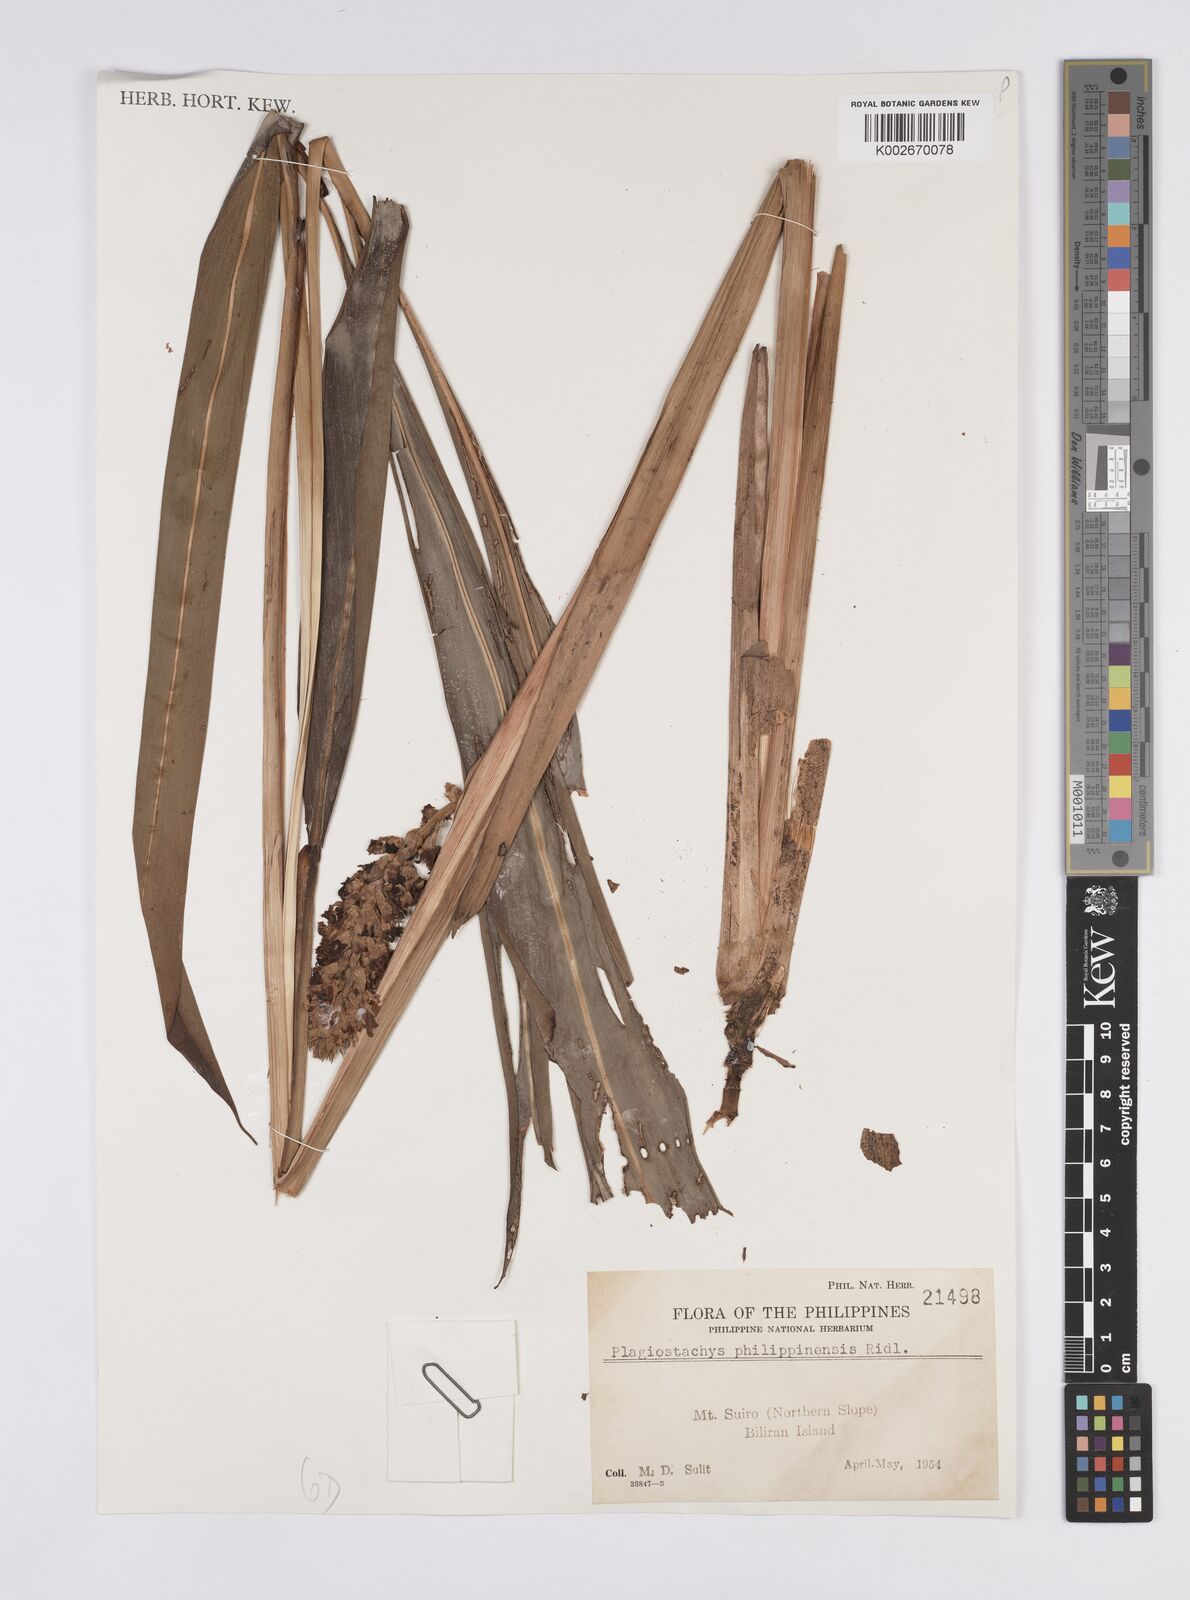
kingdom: Plantae
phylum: Tracheophyta
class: Liliopsida
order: Zingiberales
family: Zingiberaceae
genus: Plagiostachys
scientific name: Plagiostachys philippinensis
